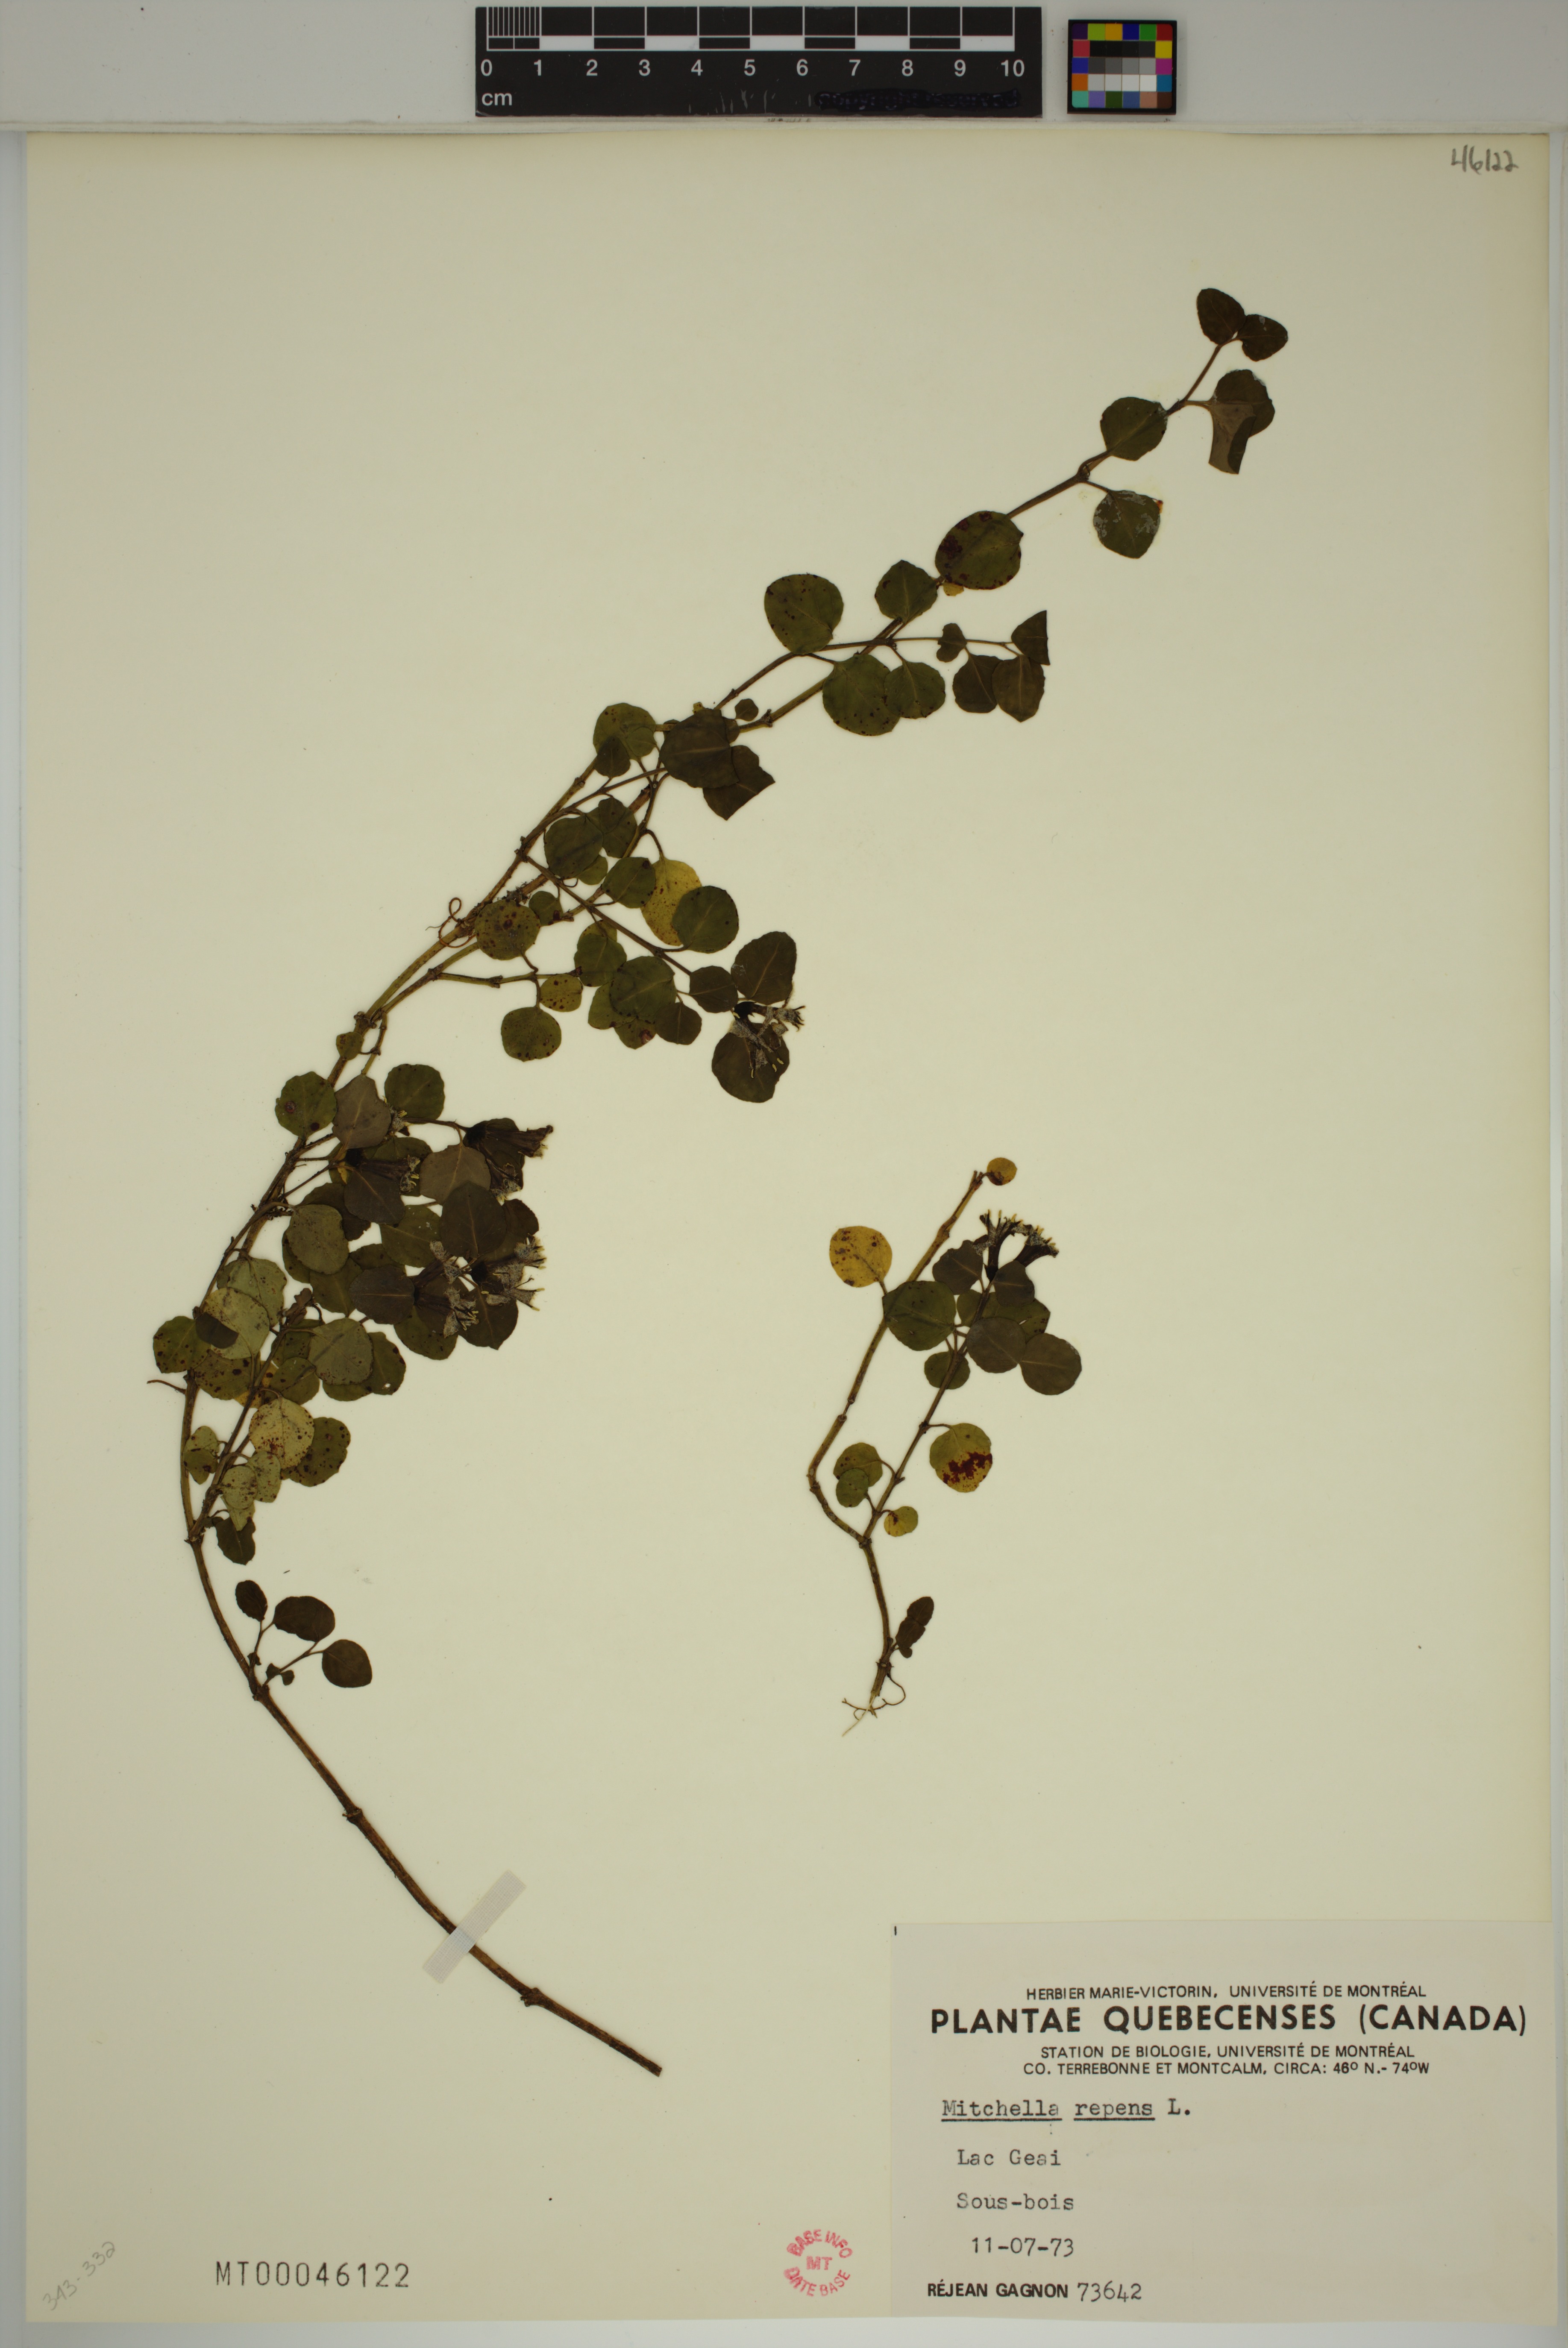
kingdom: Plantae
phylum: Tracheophyta
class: Magnoliopsida
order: Gentianales
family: Rubiaceae
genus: Mitchella
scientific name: Mitchella repens
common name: Partridge-berry
